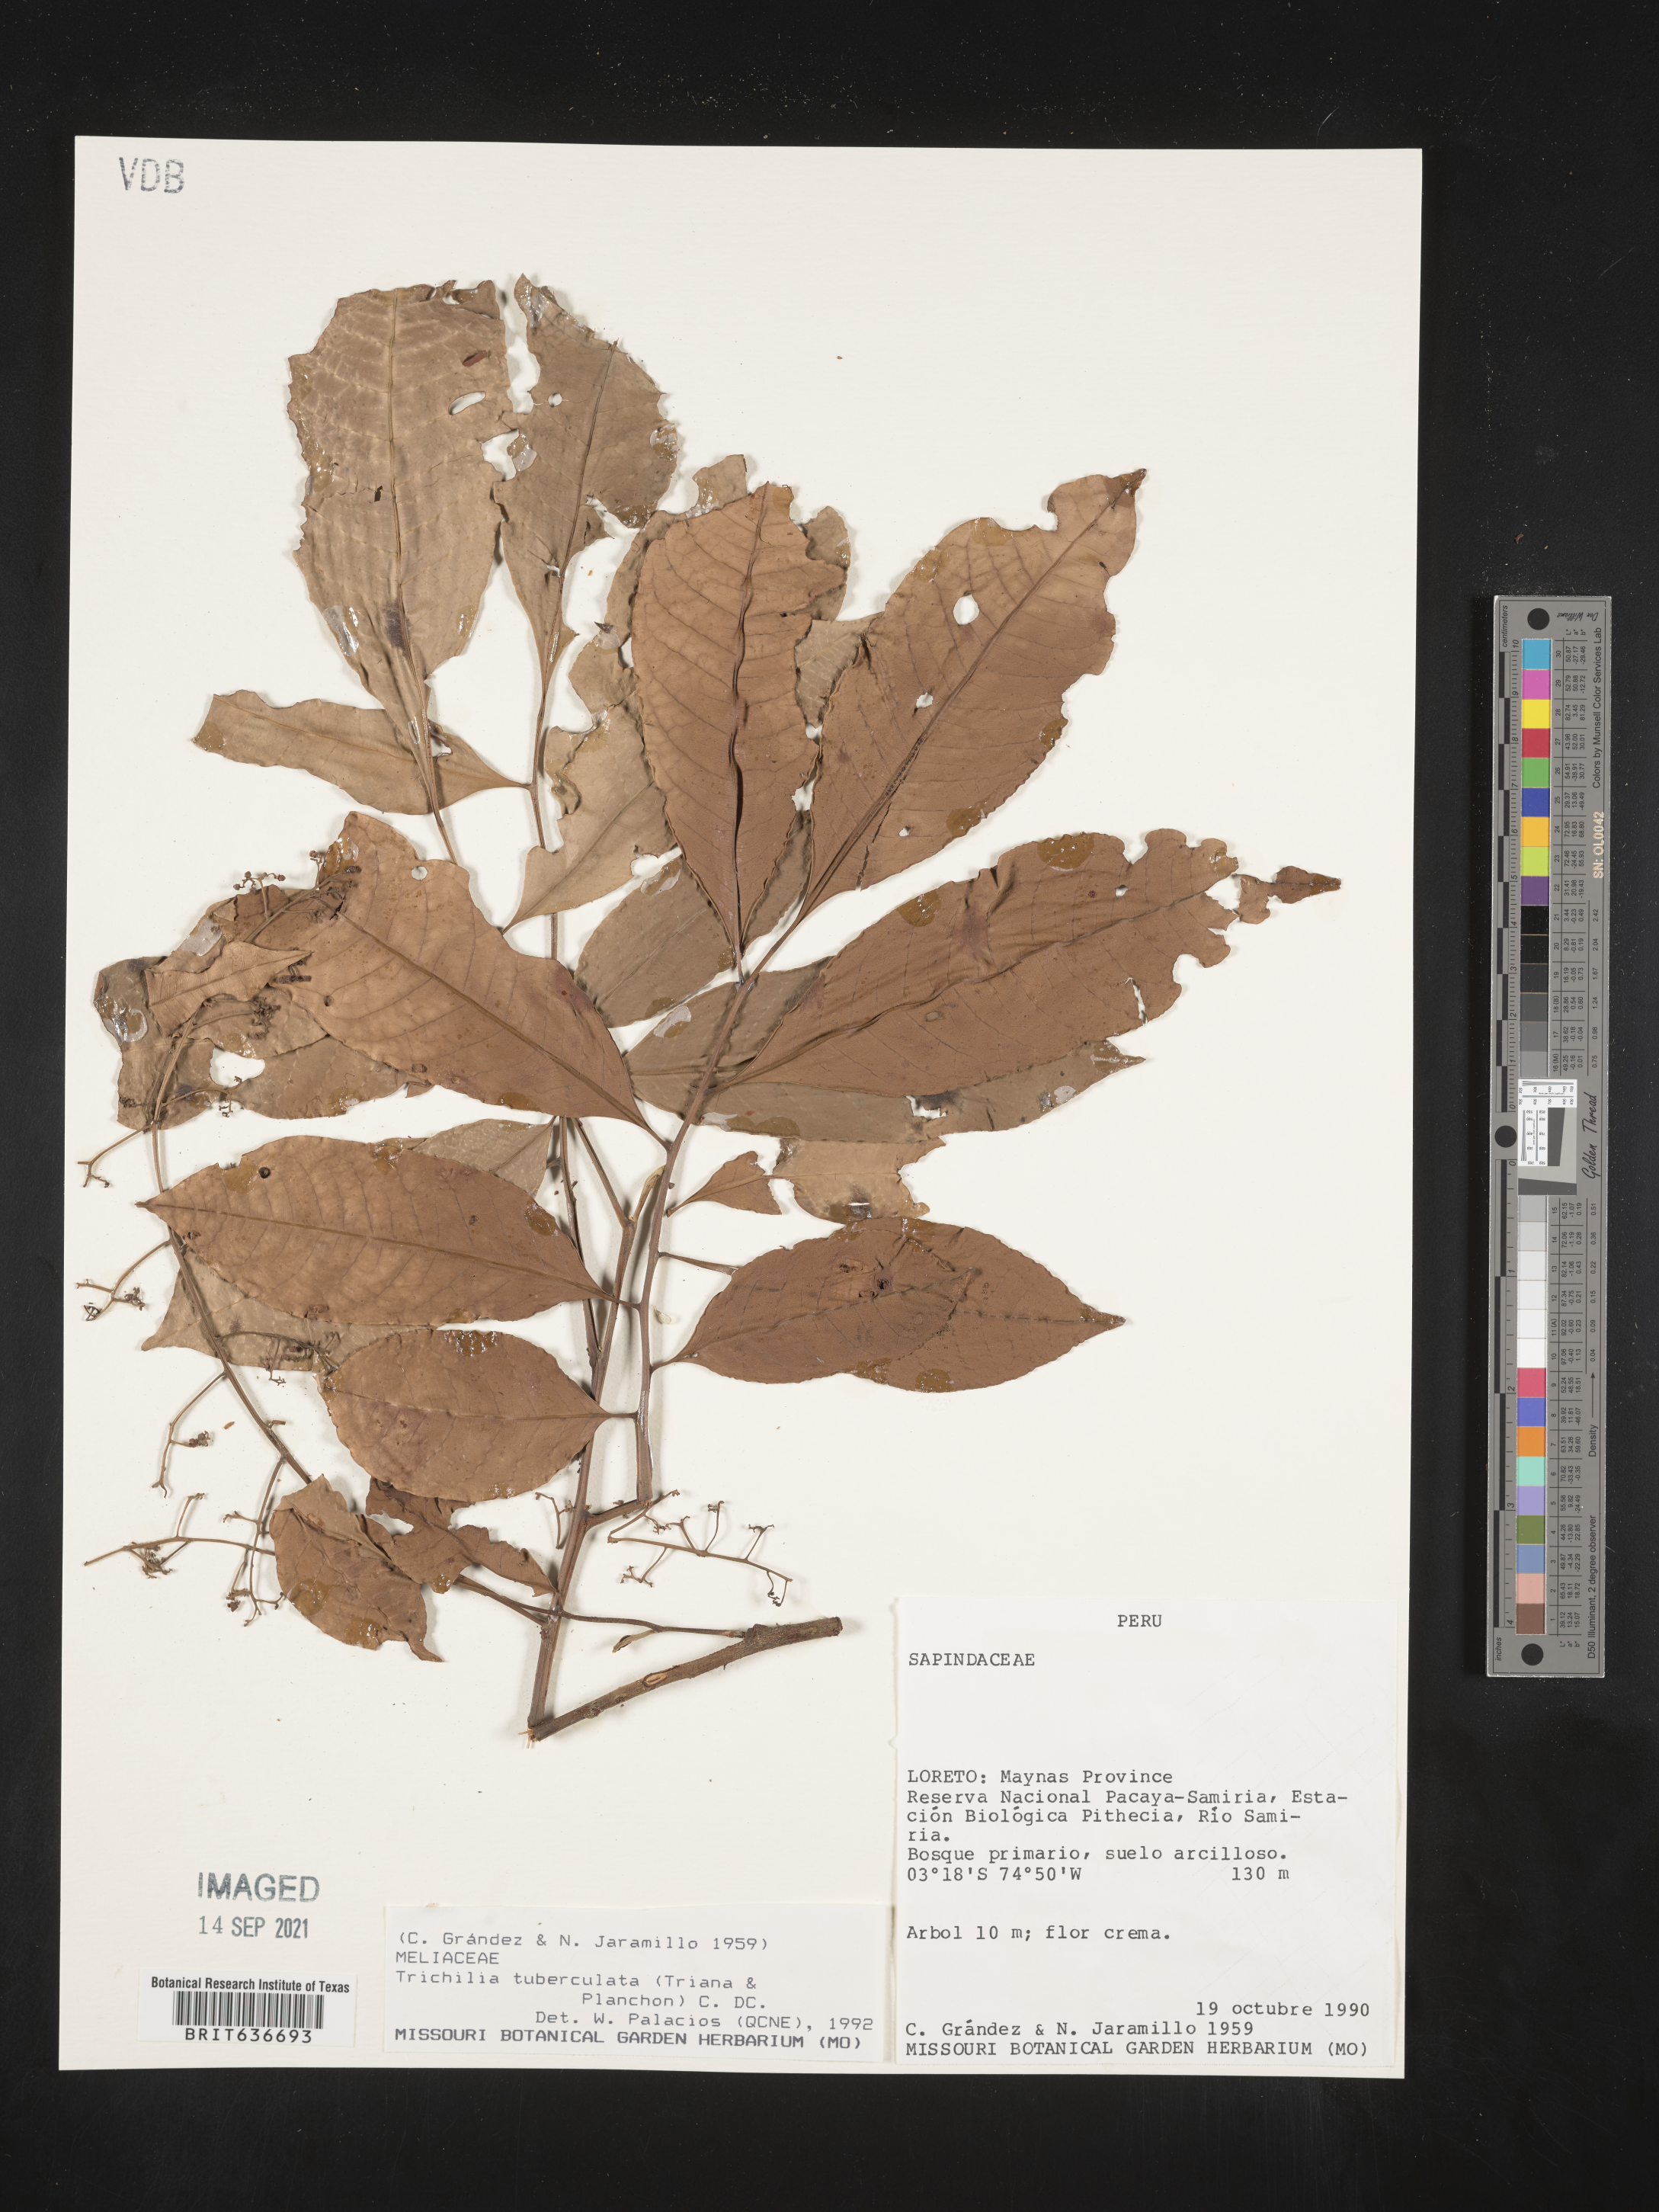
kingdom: Plantae
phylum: Tracheophyta
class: Magnoliopsida
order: Sapindales
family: Meliaceae
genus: Trichilia
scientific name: Trichilia
